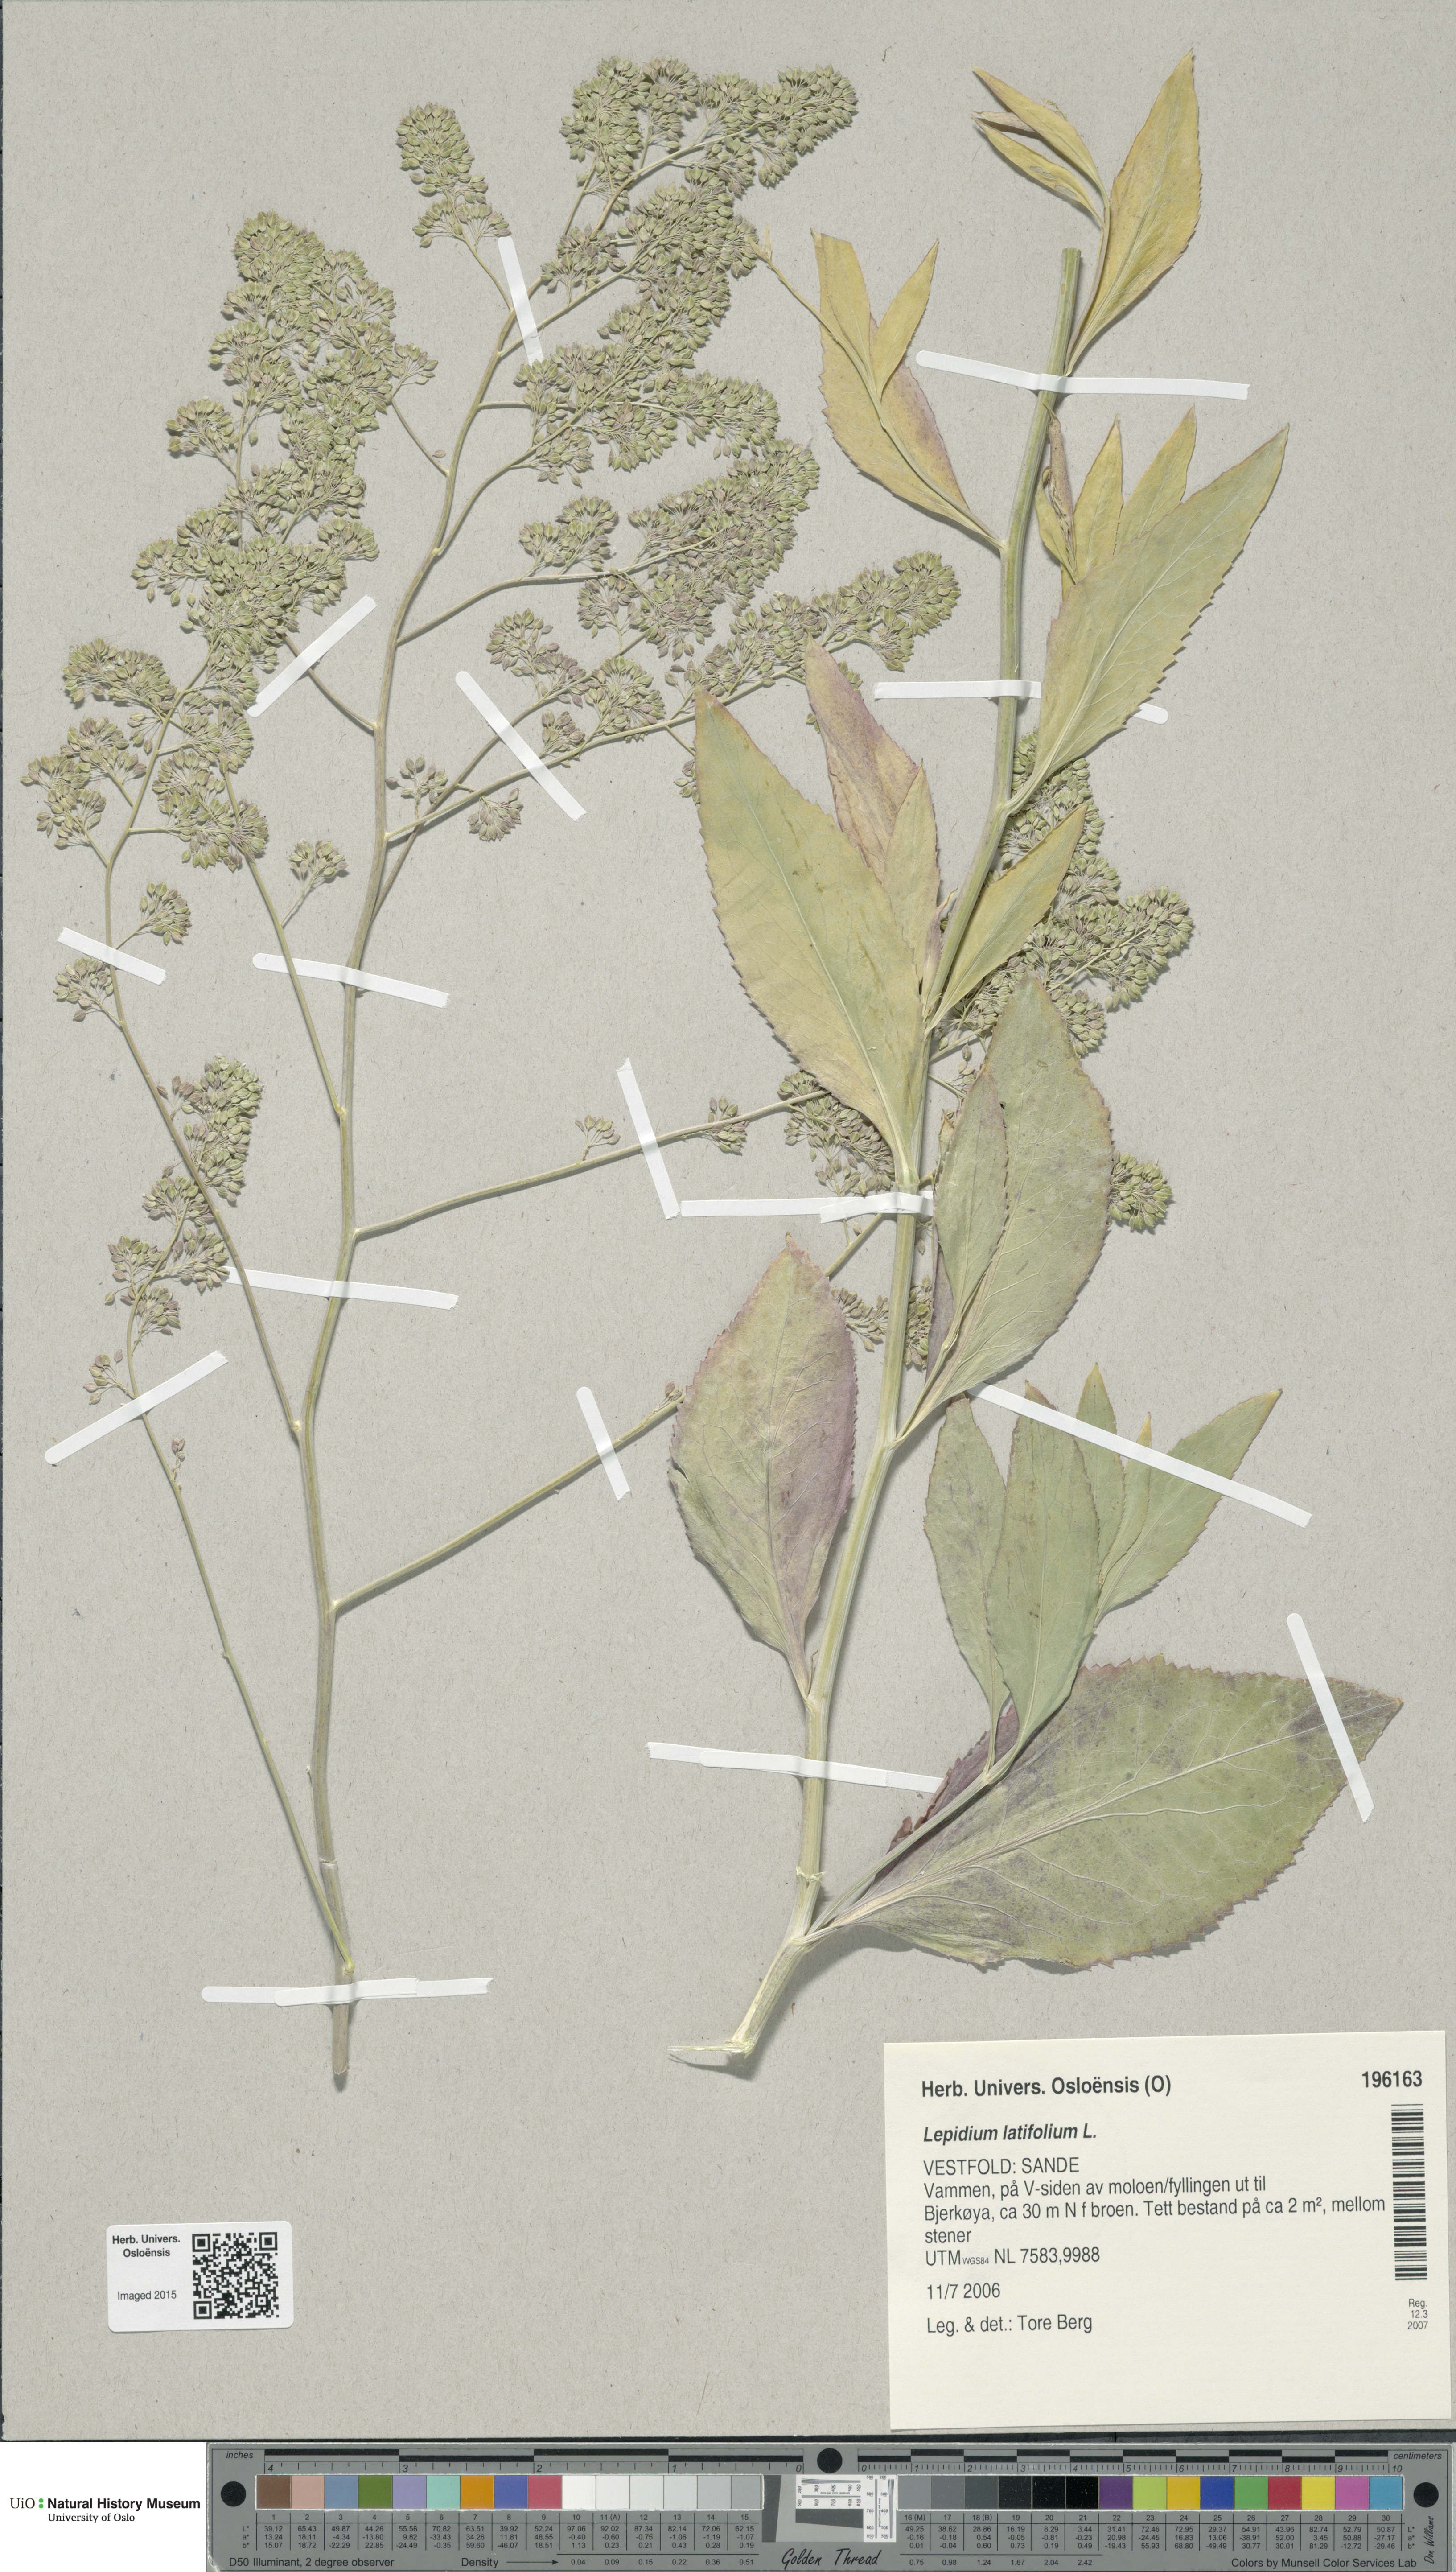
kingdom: Plantae
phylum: Tracheophyta
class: Magnoliopsida
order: Brassicales
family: Brassicaceae
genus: Lepidium
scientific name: Lepidium latifolium
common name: Dittander
